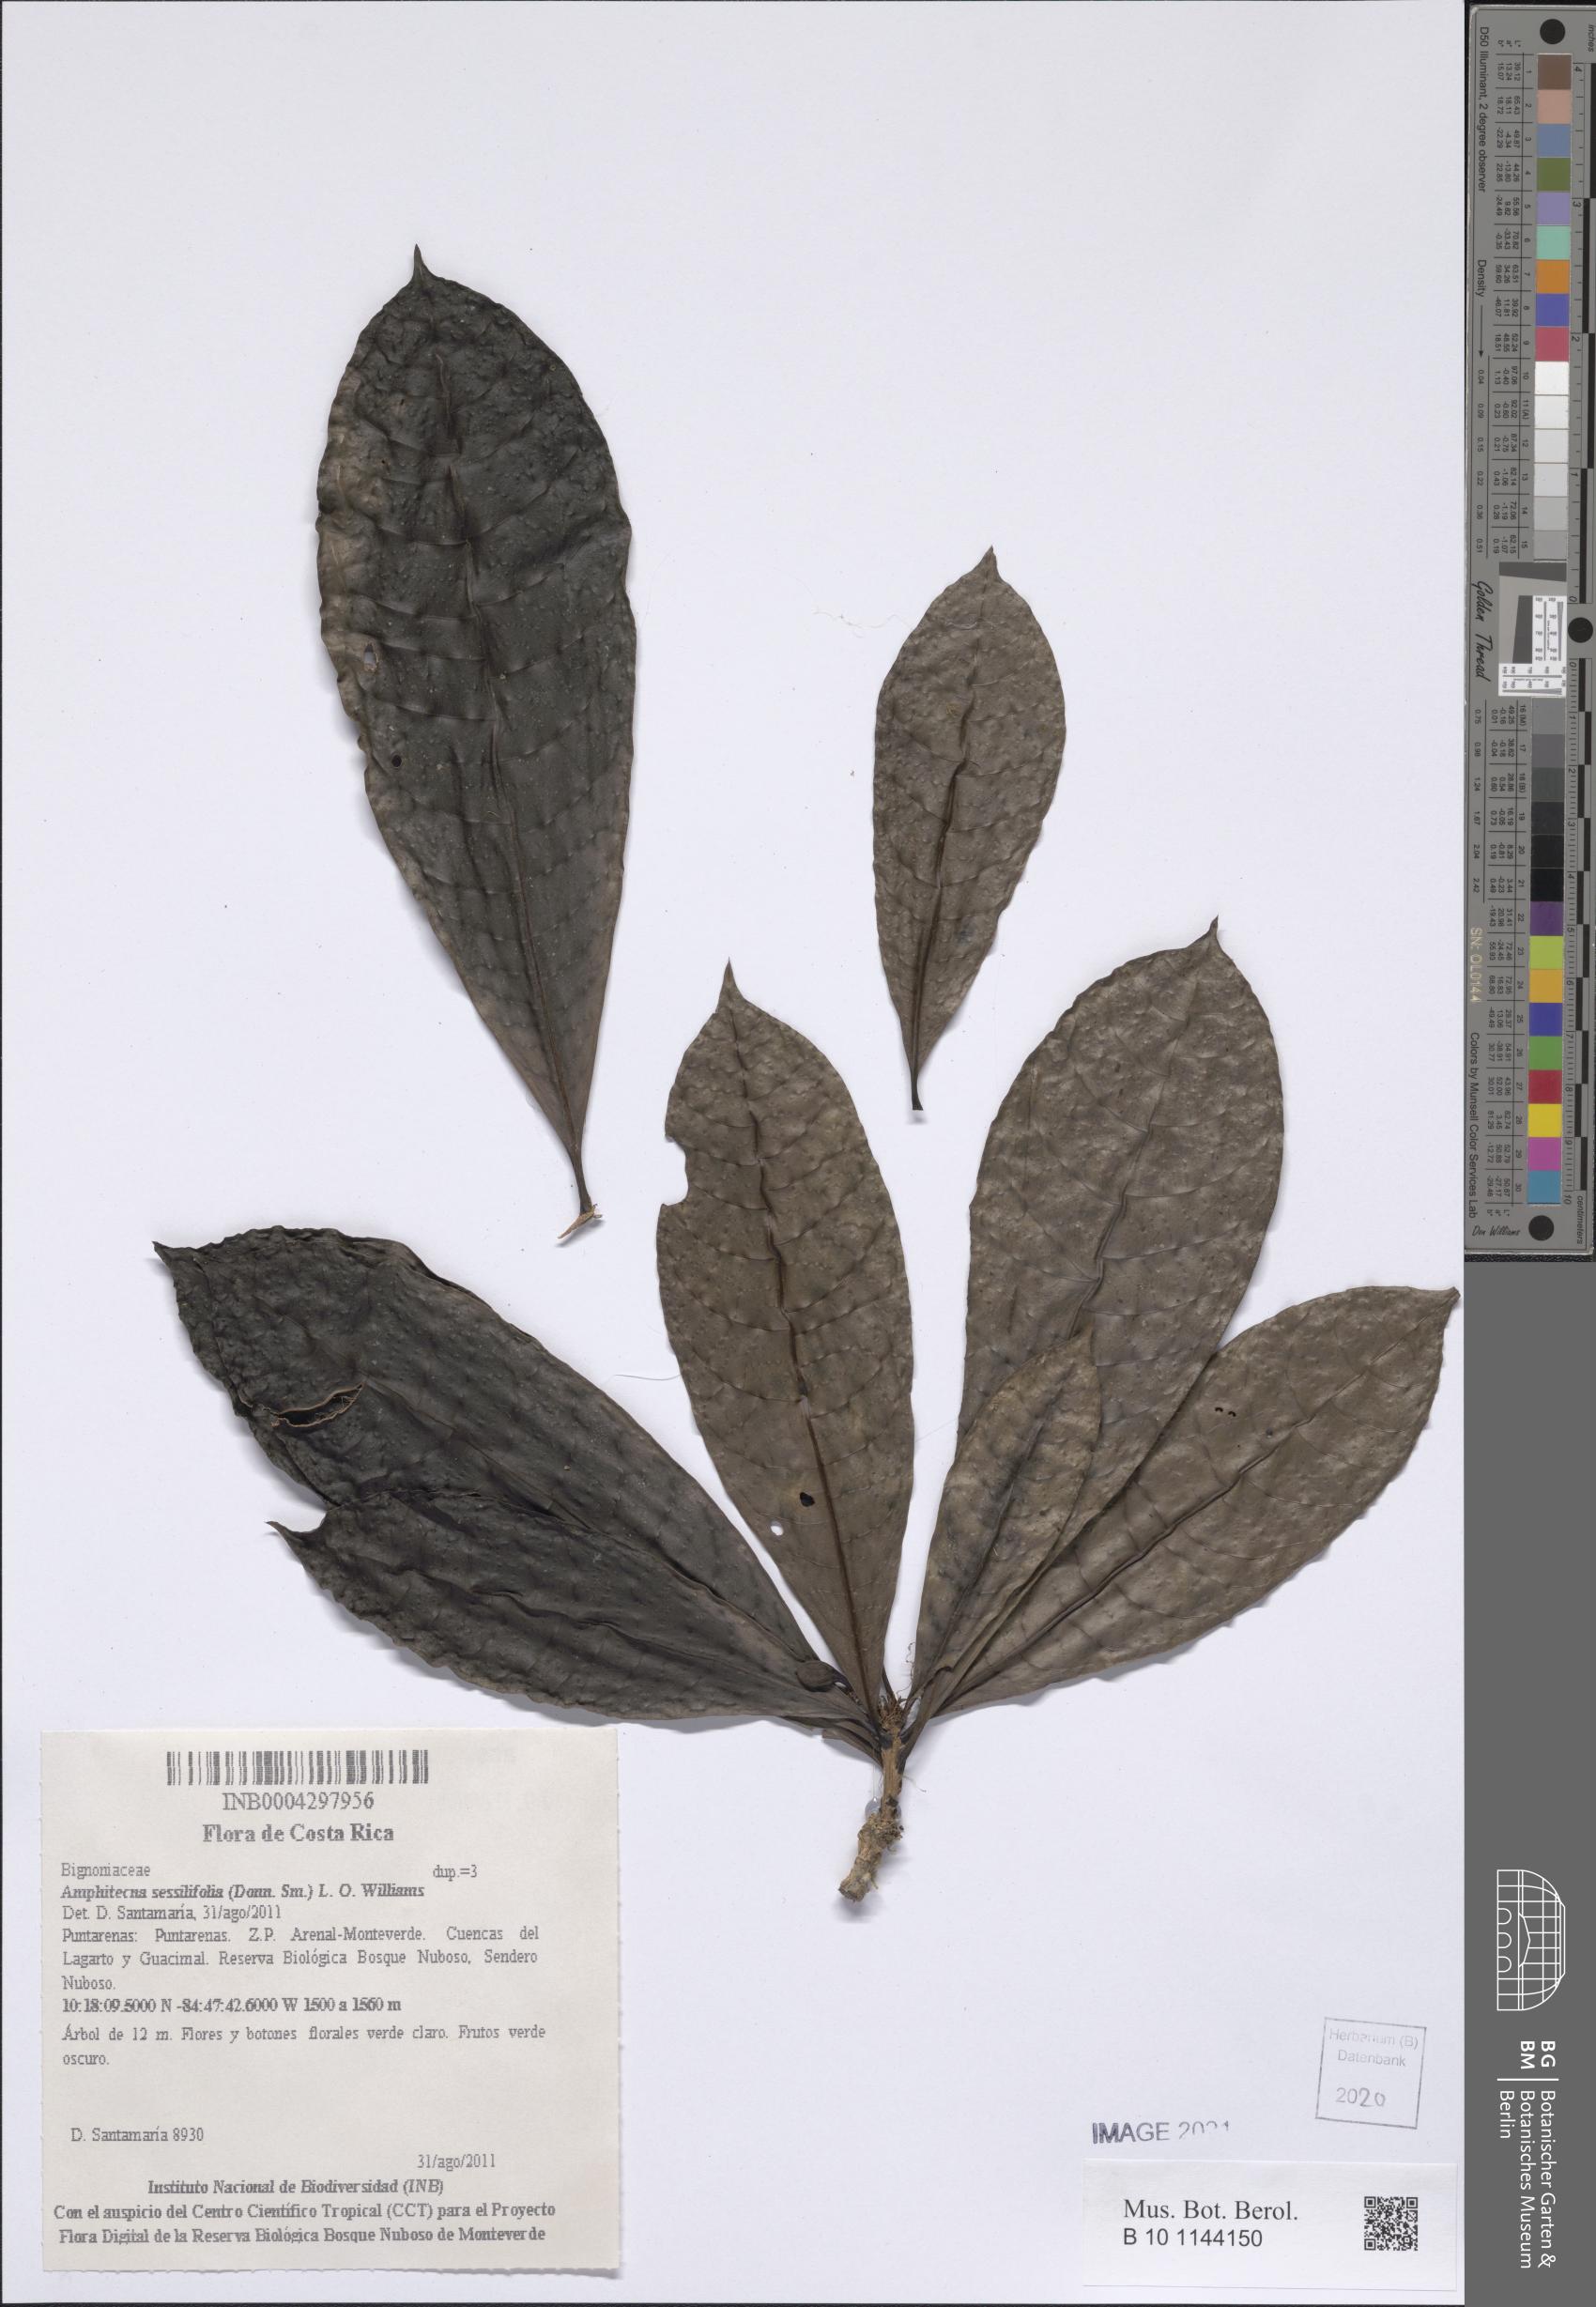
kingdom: Plantae
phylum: Tracheophyta
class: Magnoliopsida
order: Lamiales
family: Bignoniaceae
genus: Amphitecna
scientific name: Amphitecna sessilifolia
